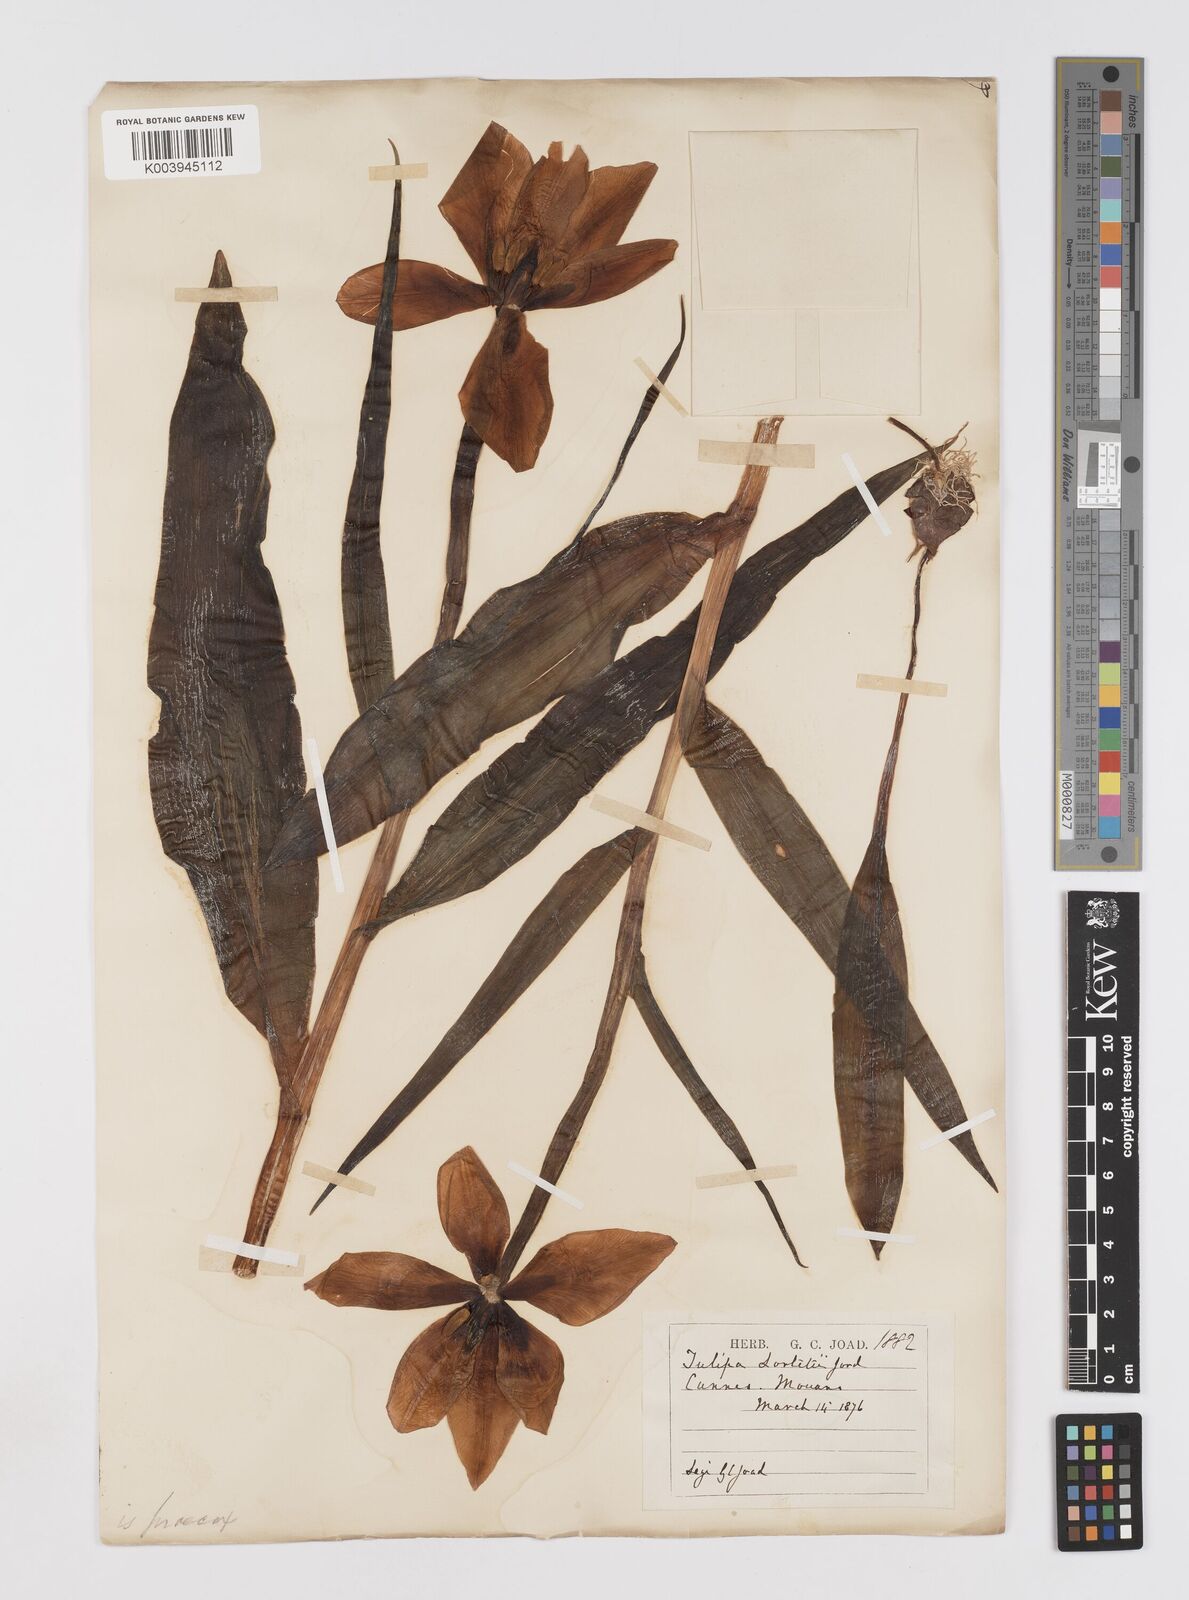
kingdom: Plantae
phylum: Tracheophyta
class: Liliopsida
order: Liliales
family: Liliaceae
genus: Tulipa
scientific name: Tulipa
